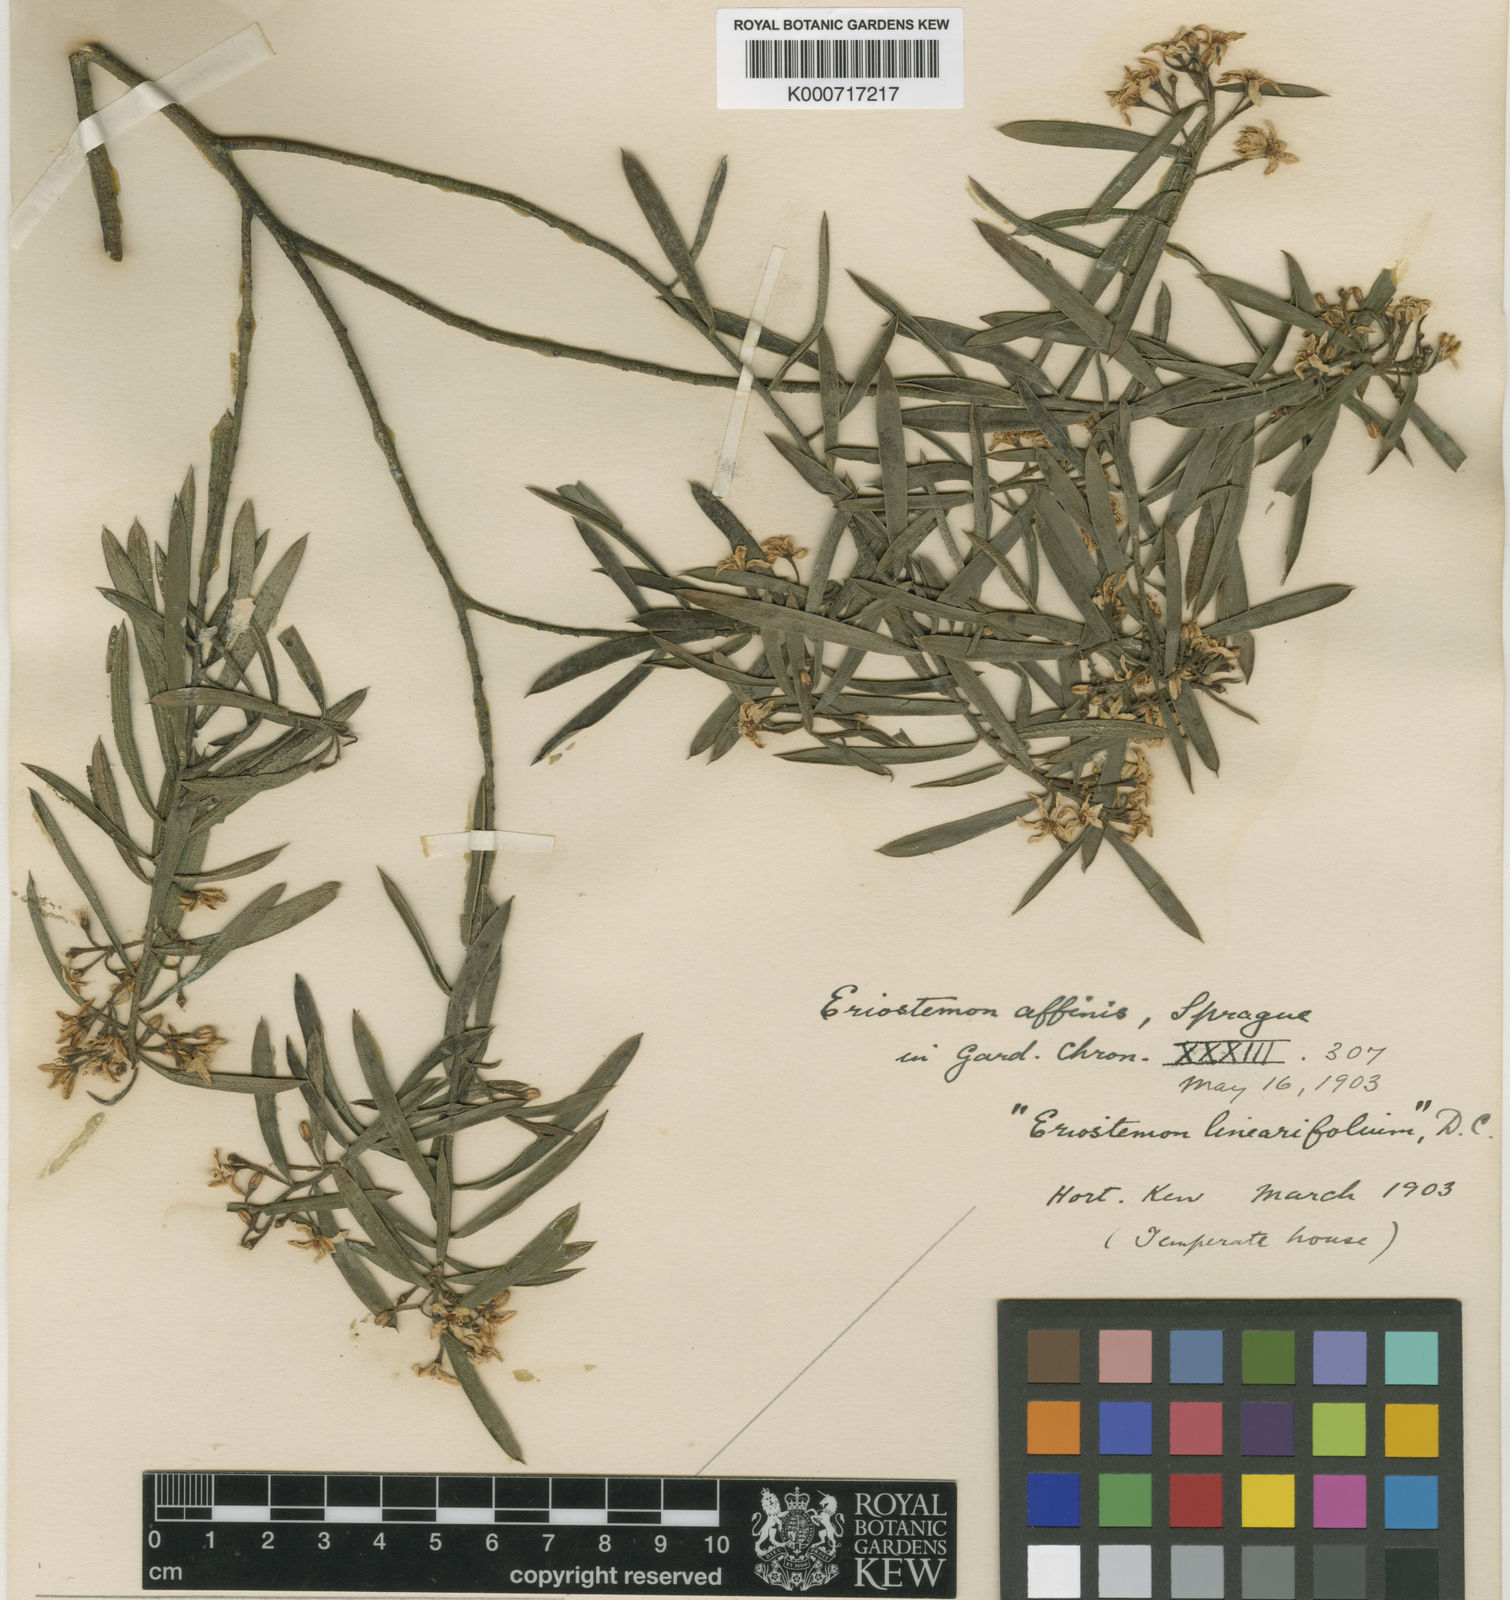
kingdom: Plantae
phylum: Tracheophyta
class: Magnoliopsida
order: Sapindales
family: Rutaceae
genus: Philotheca
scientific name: Philotheca myoporoides
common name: Longleaf waxflower
